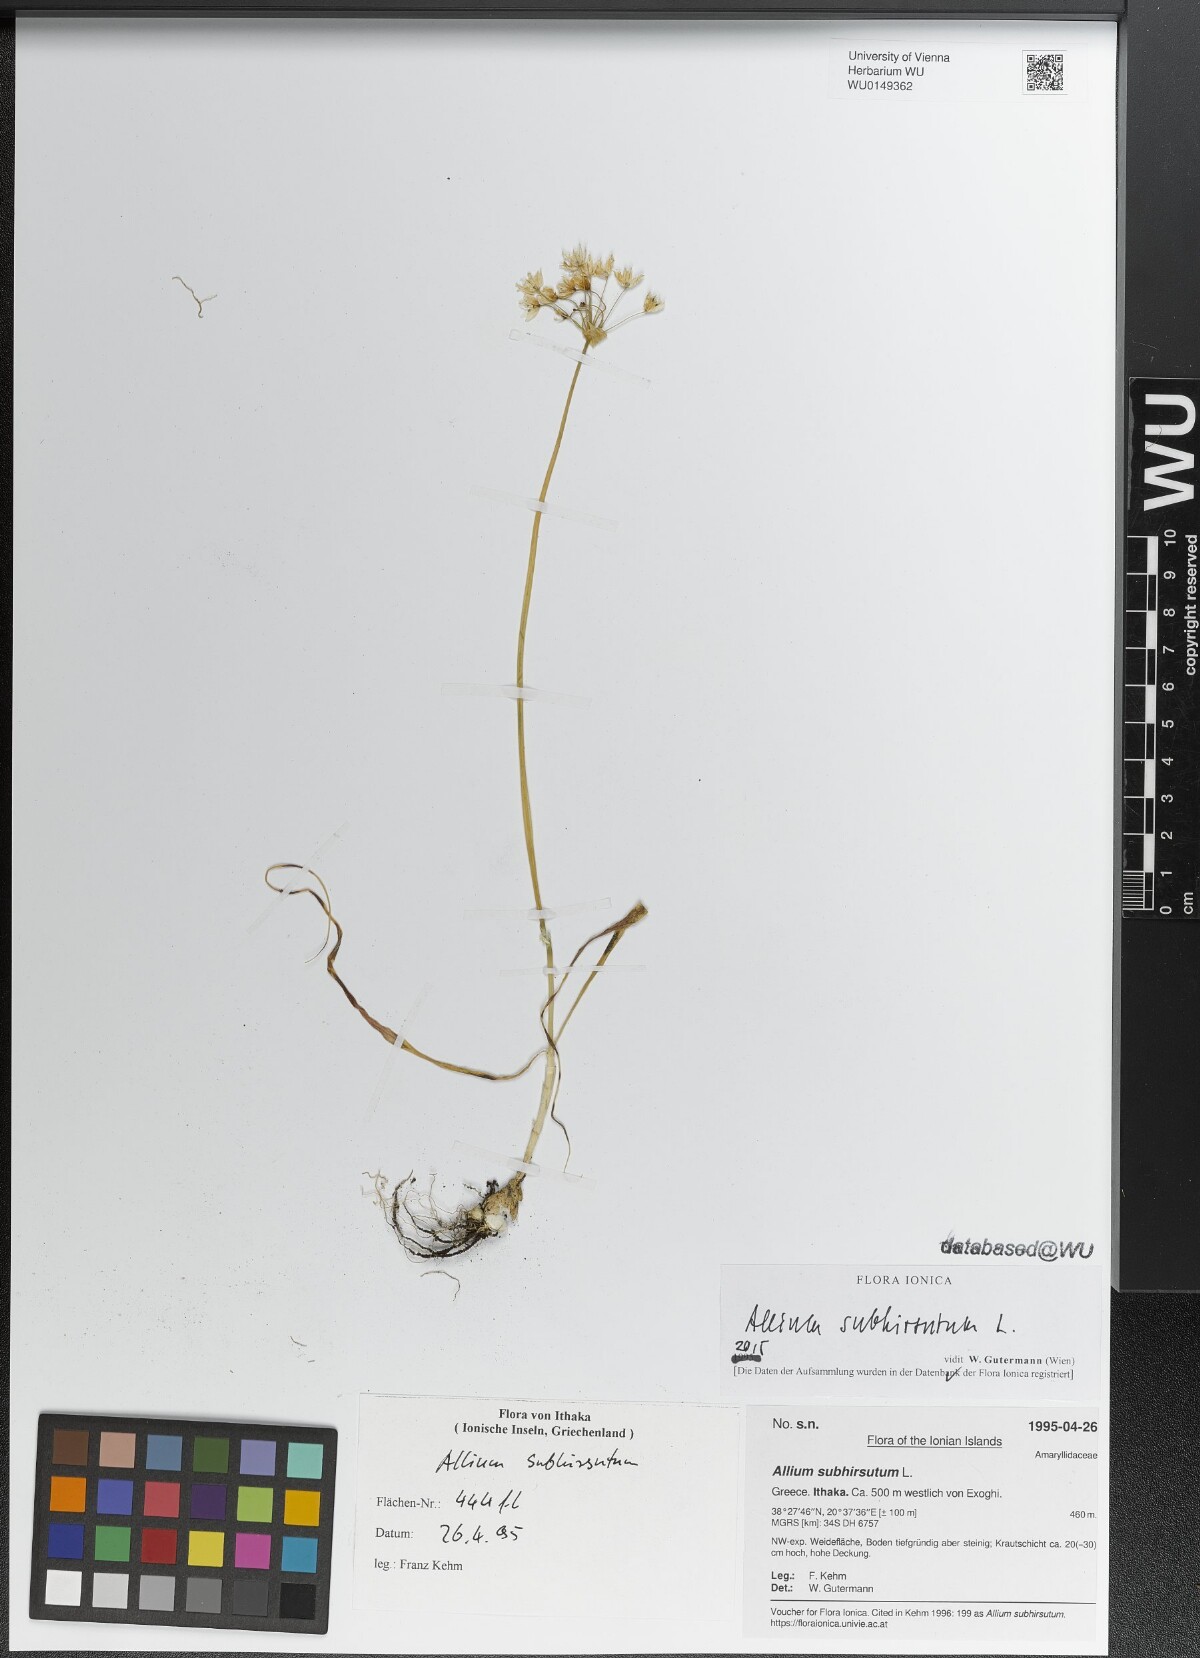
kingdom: Plantae
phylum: Tracheophyta
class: Liliopsida
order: Asparagales
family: Amaryllidaceae
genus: Allium
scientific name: Allium subhirsutum
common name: Hairy garlic
